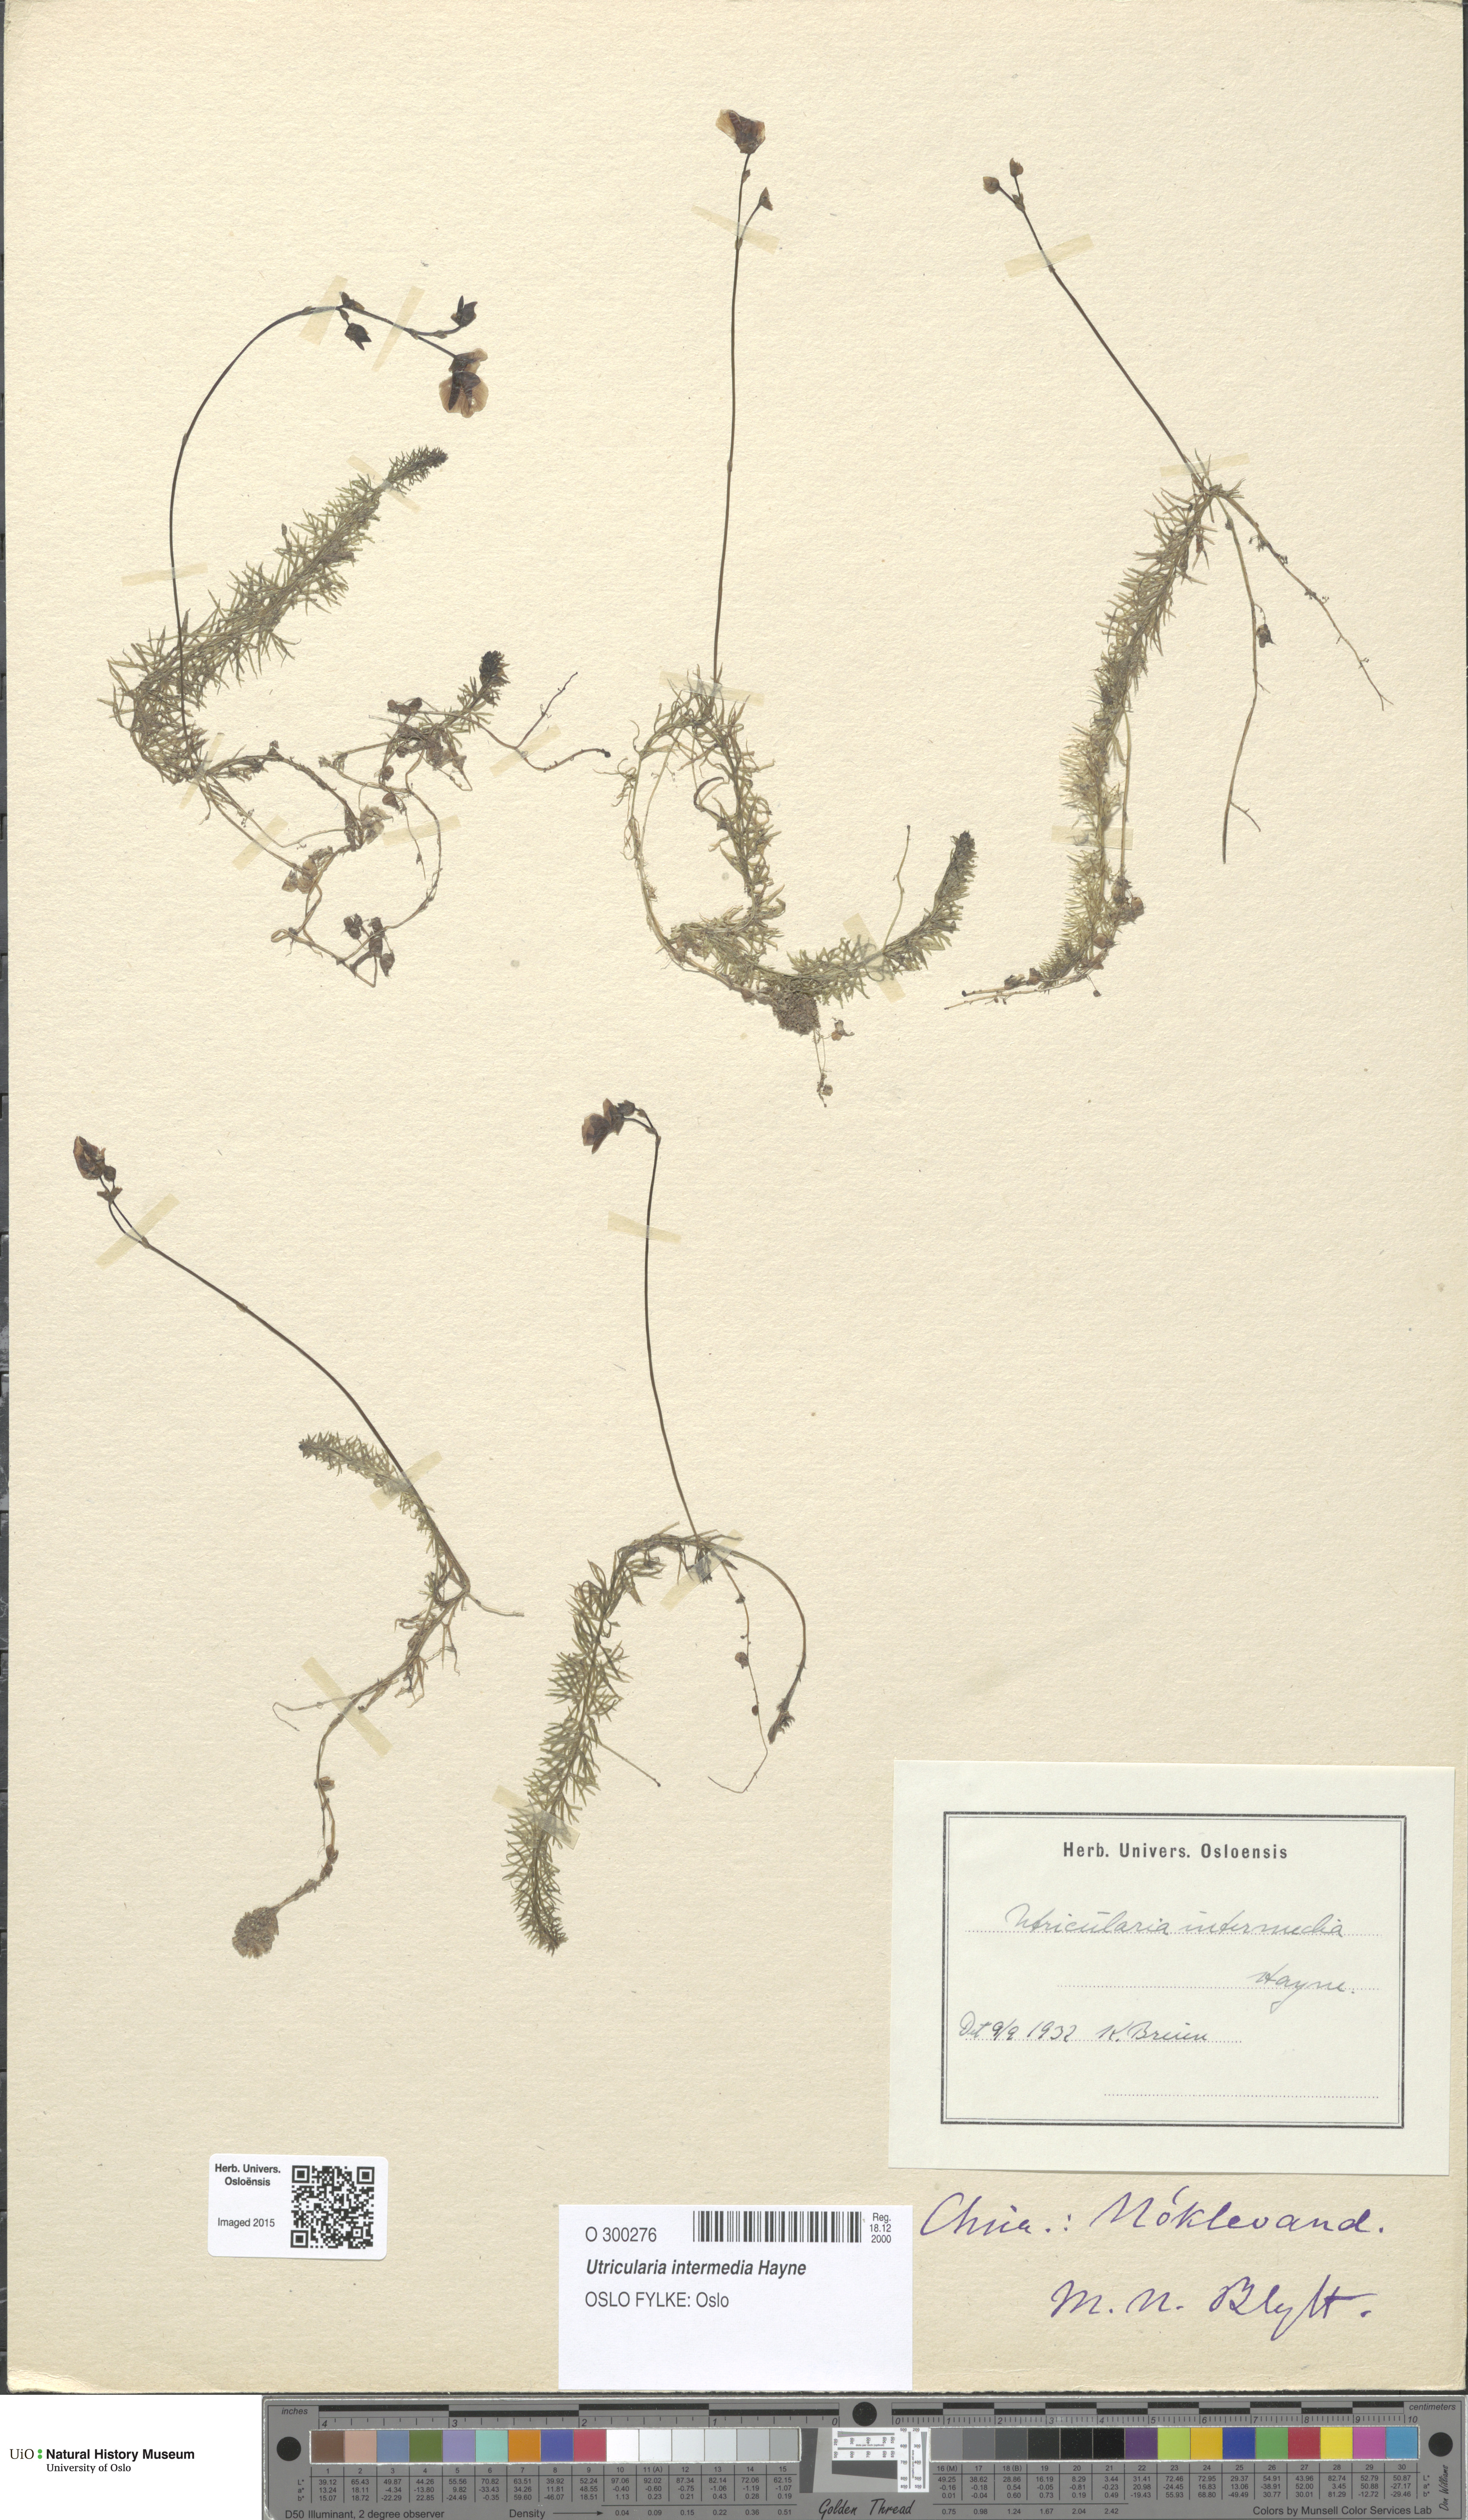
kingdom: Plantae
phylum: Tracheophyta
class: Magnoliopsida
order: Lamiales
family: Lentibulariaceae
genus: Utricularia
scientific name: Utricularia intermedia
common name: Intermediate bladderwort
